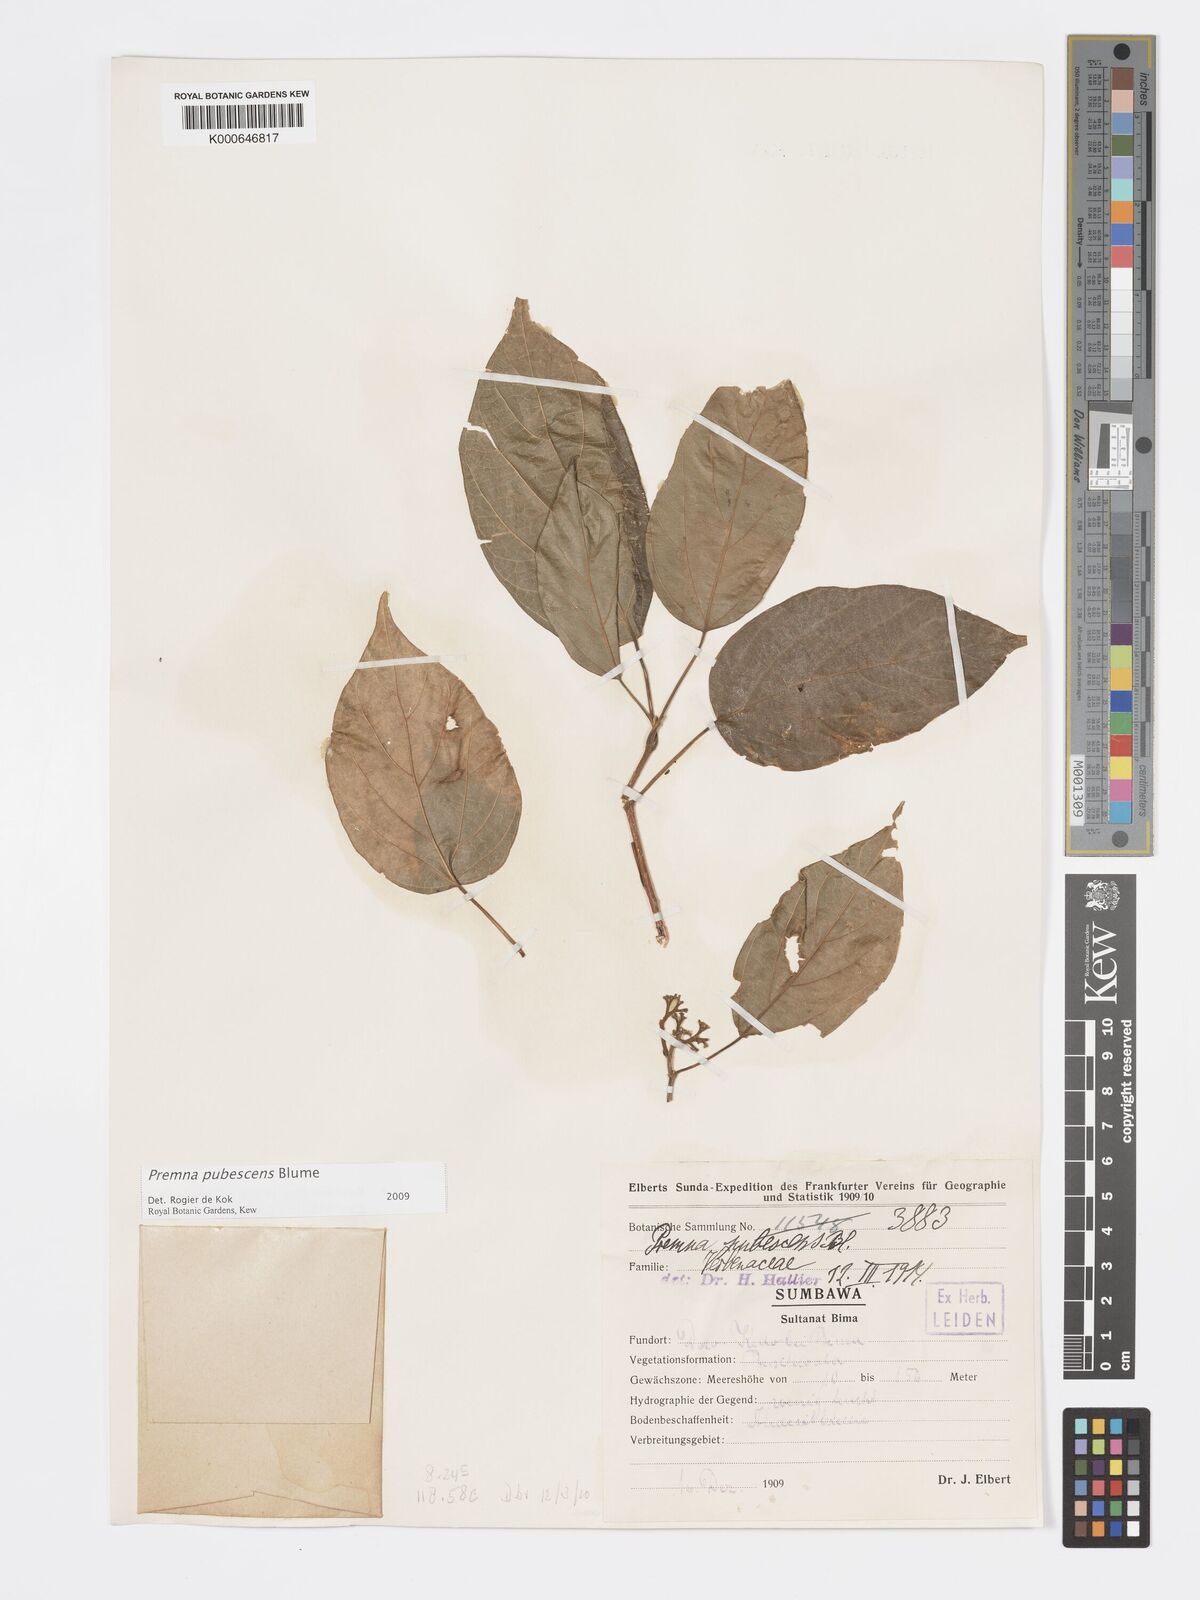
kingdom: Plantae
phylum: Tracheophyta
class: Magnoliopsida
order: Lamiales
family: Lamiaceae
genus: Premna
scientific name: Premna
